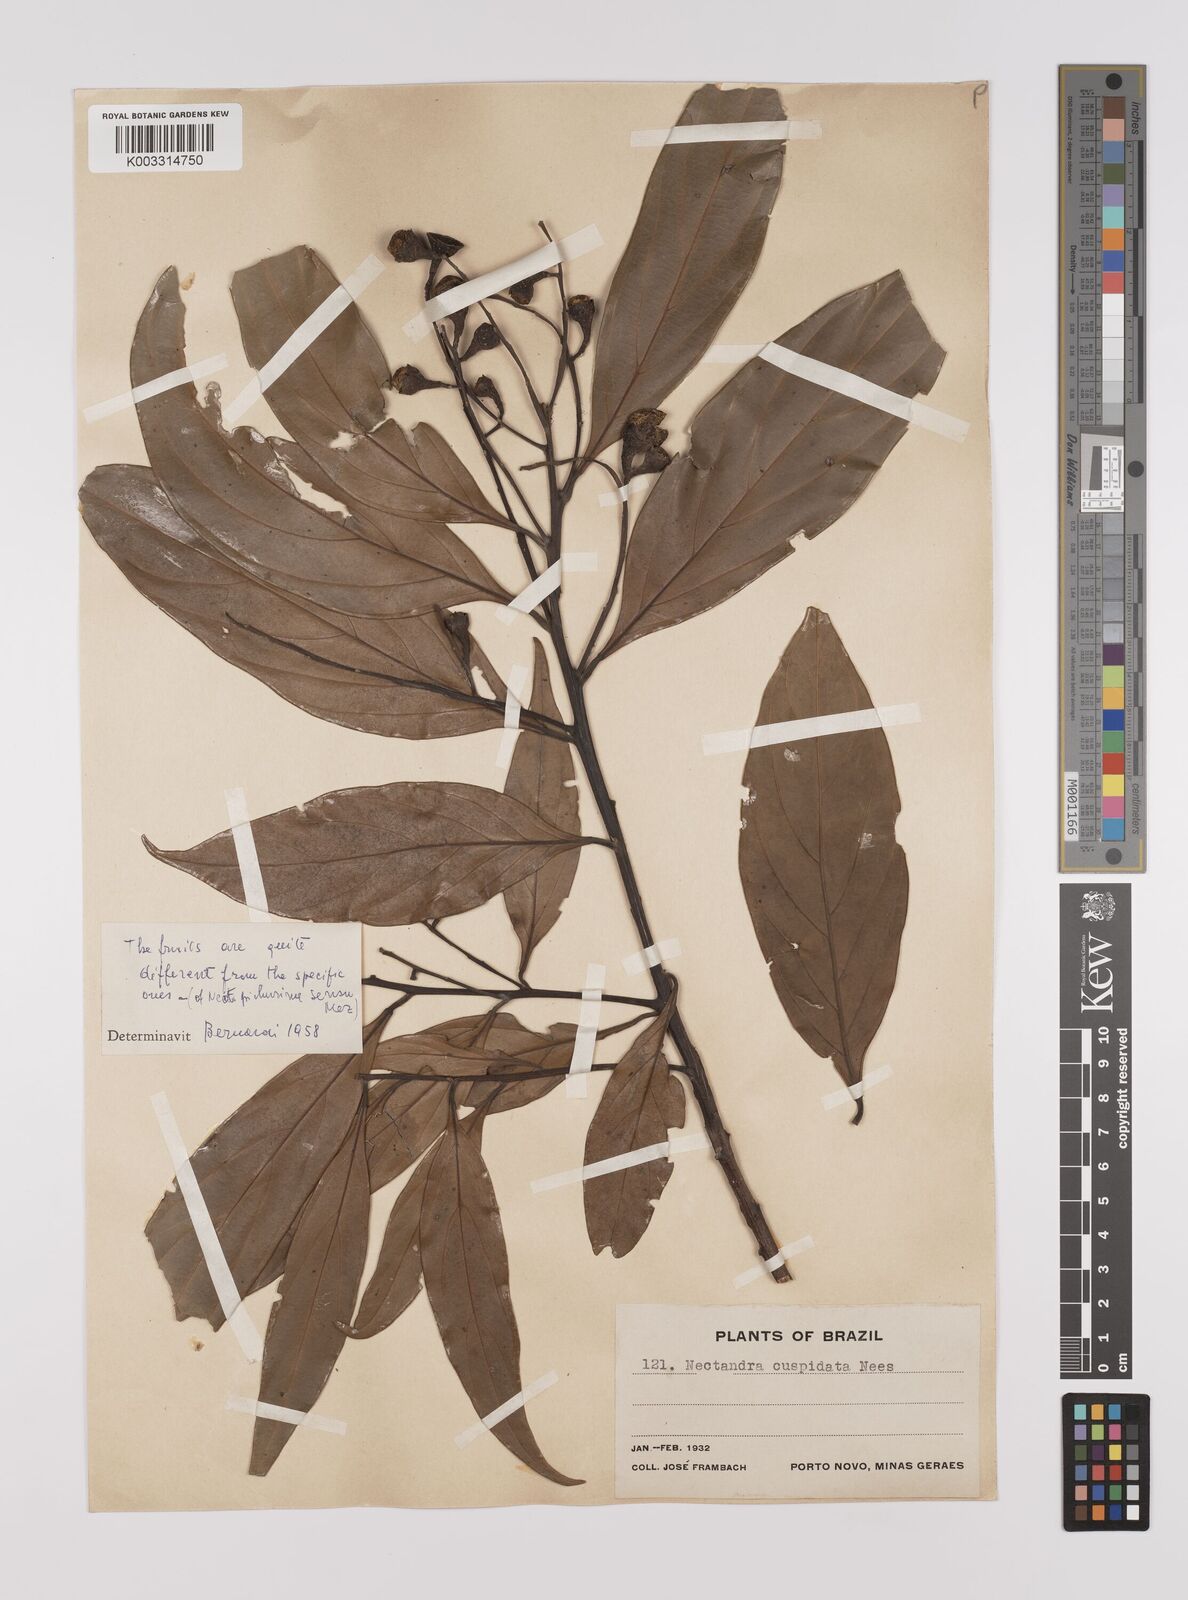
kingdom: Plantae
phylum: Tracheophyta
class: Magnoliopsida
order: Laurales
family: Lauraceae
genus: Nectandra
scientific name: Nectandra cuspidata
